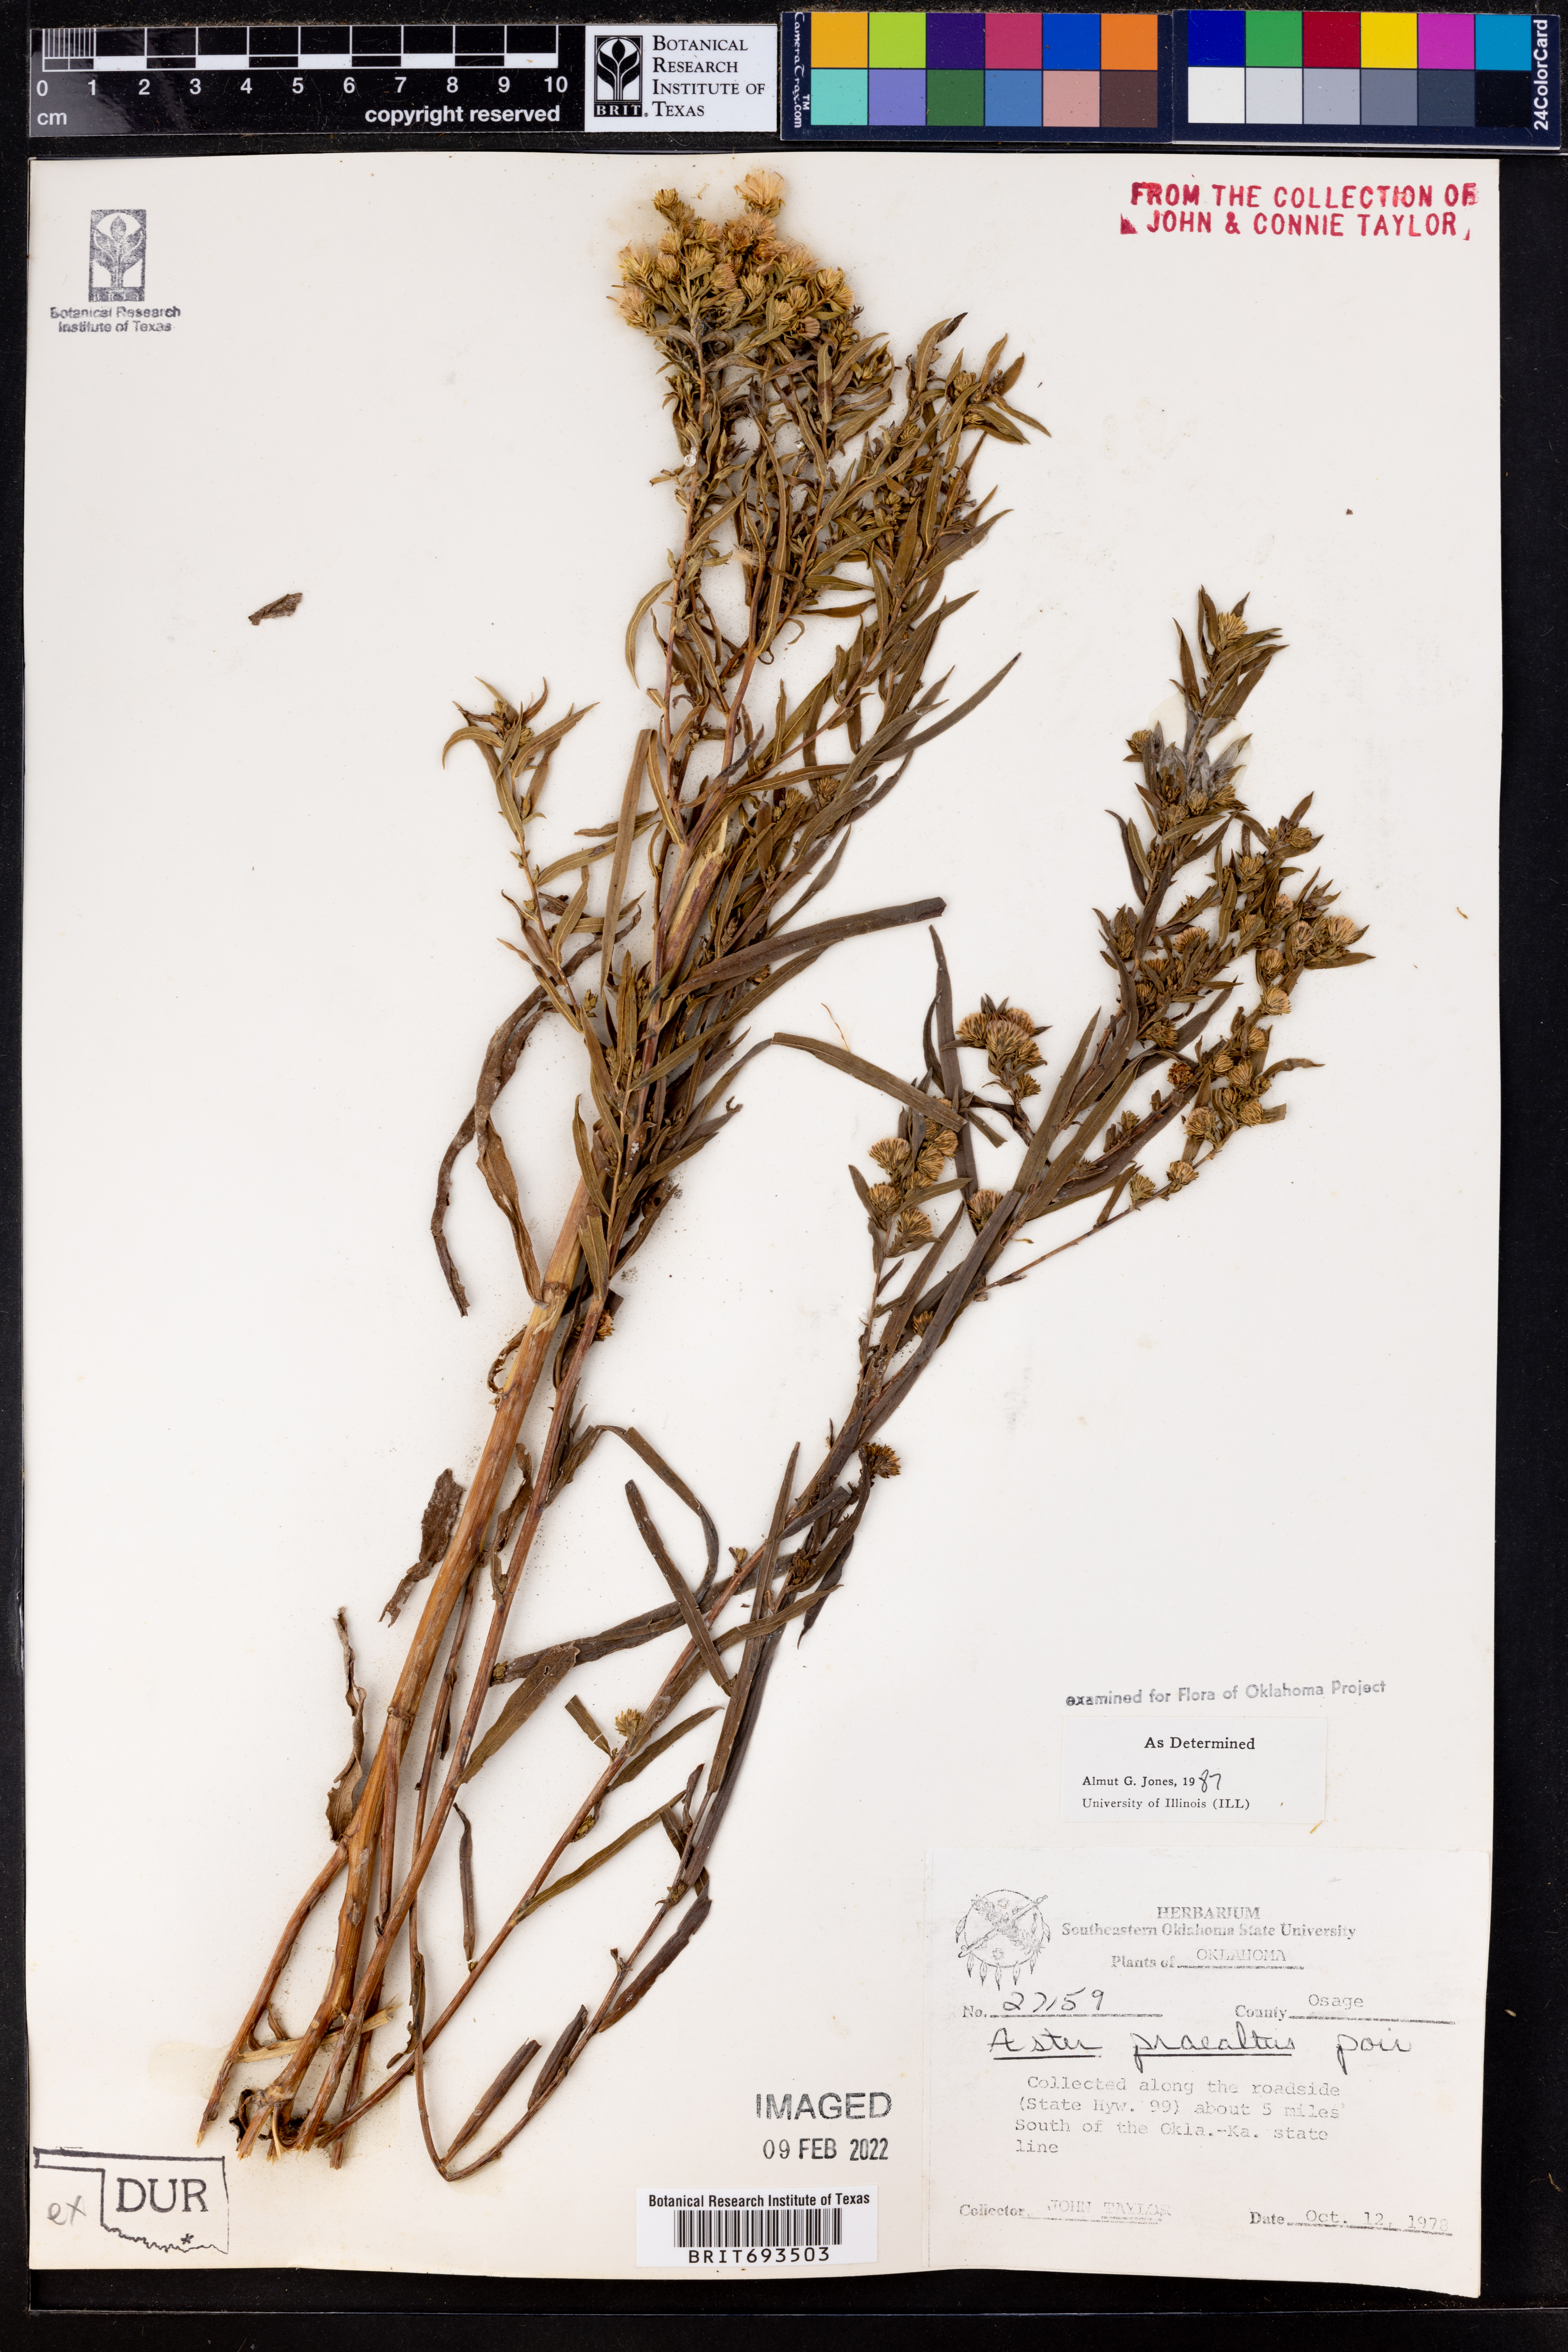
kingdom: Plantae
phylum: Tracheophyta
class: Magnoliopsida
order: Asterales
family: Asteraceae
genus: Symphyotrichum
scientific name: Symphyotrichum praealtum
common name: Willow aster
